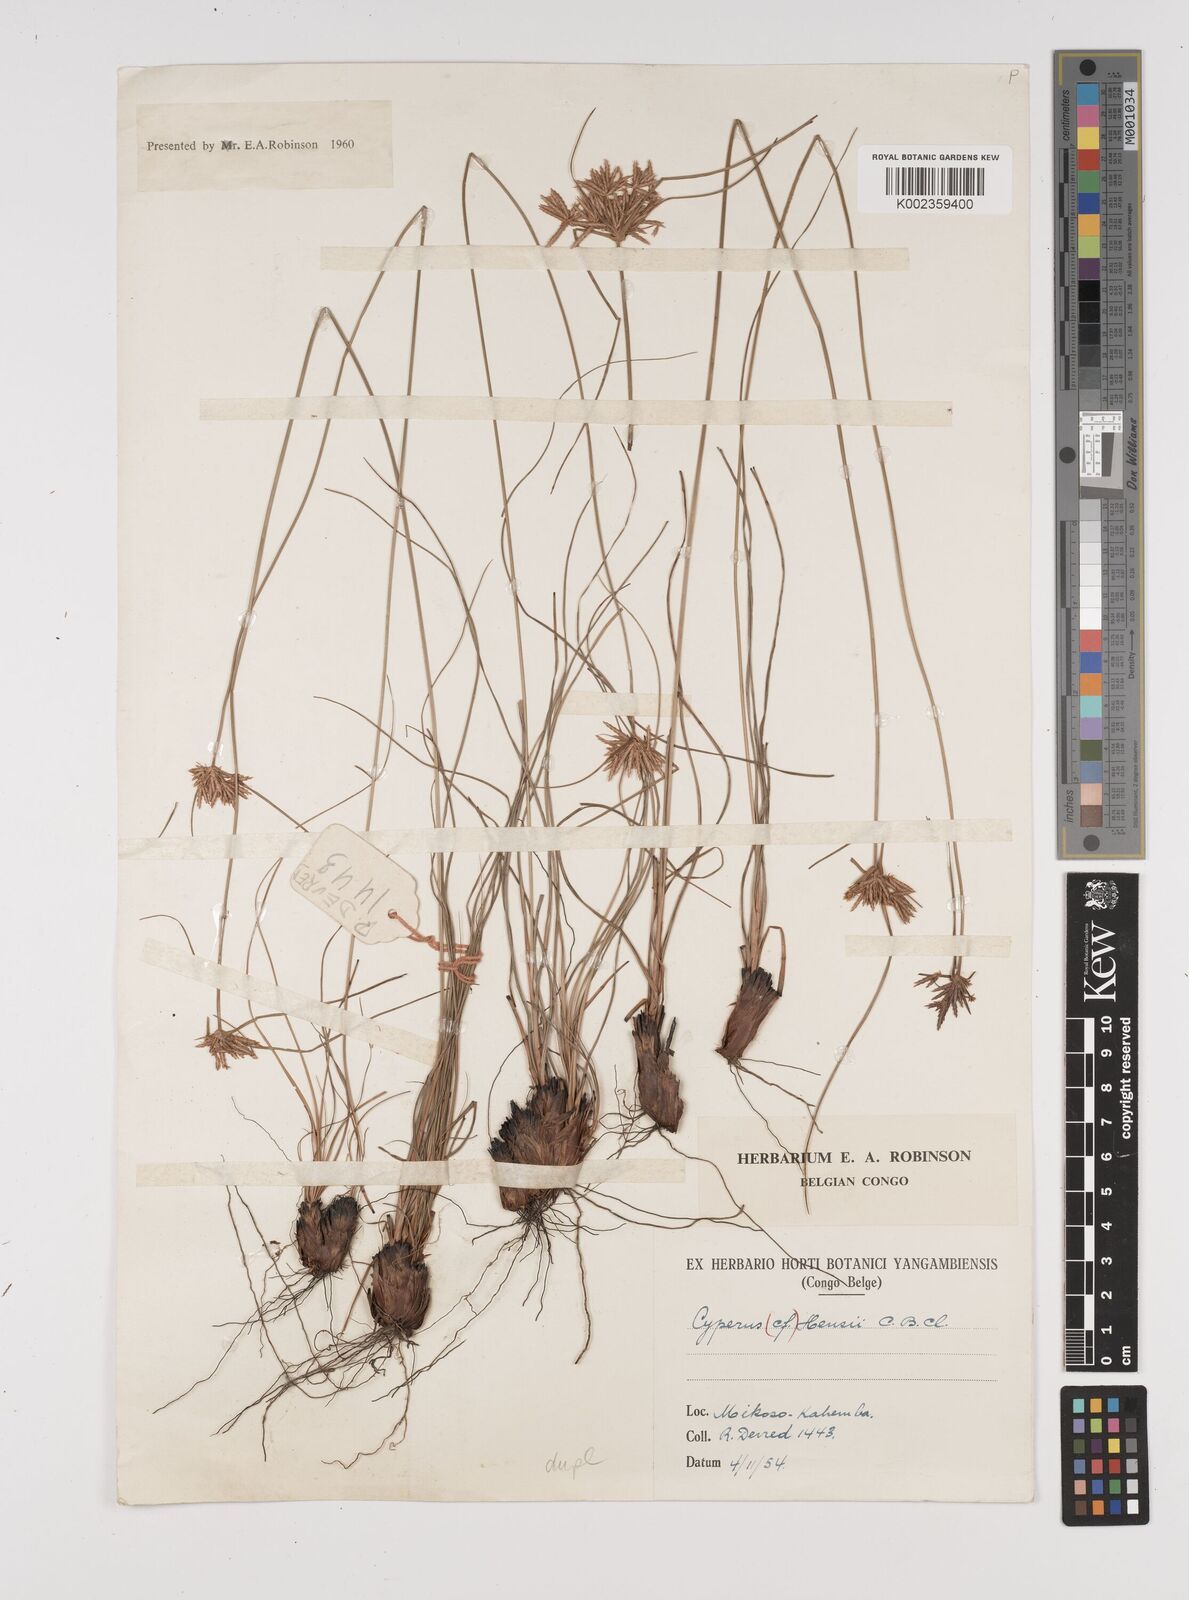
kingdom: Plantae
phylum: Tracheophyta
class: Liliopsida
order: Poales
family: Cyperaceae
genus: Cyperus
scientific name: Cyperus
